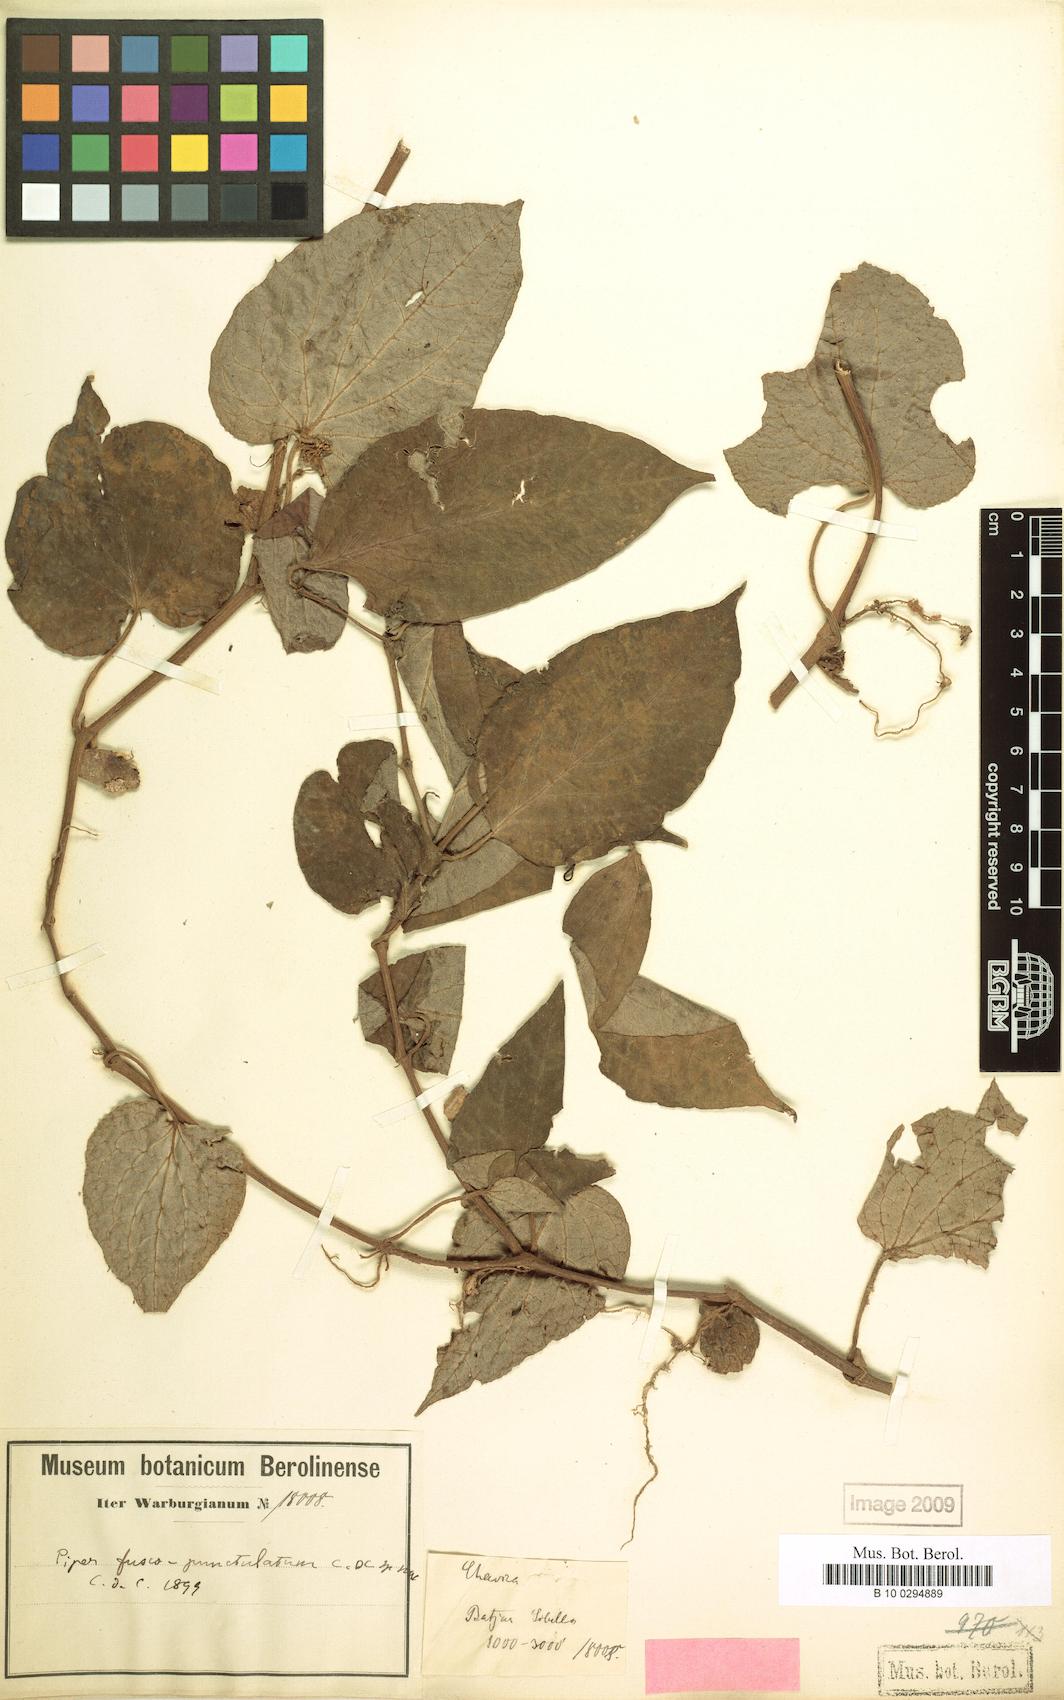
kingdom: Plantae
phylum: Tracheophyta
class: Magnoliopsida
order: Piperales
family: Piperaceae
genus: Piper
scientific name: Piper
